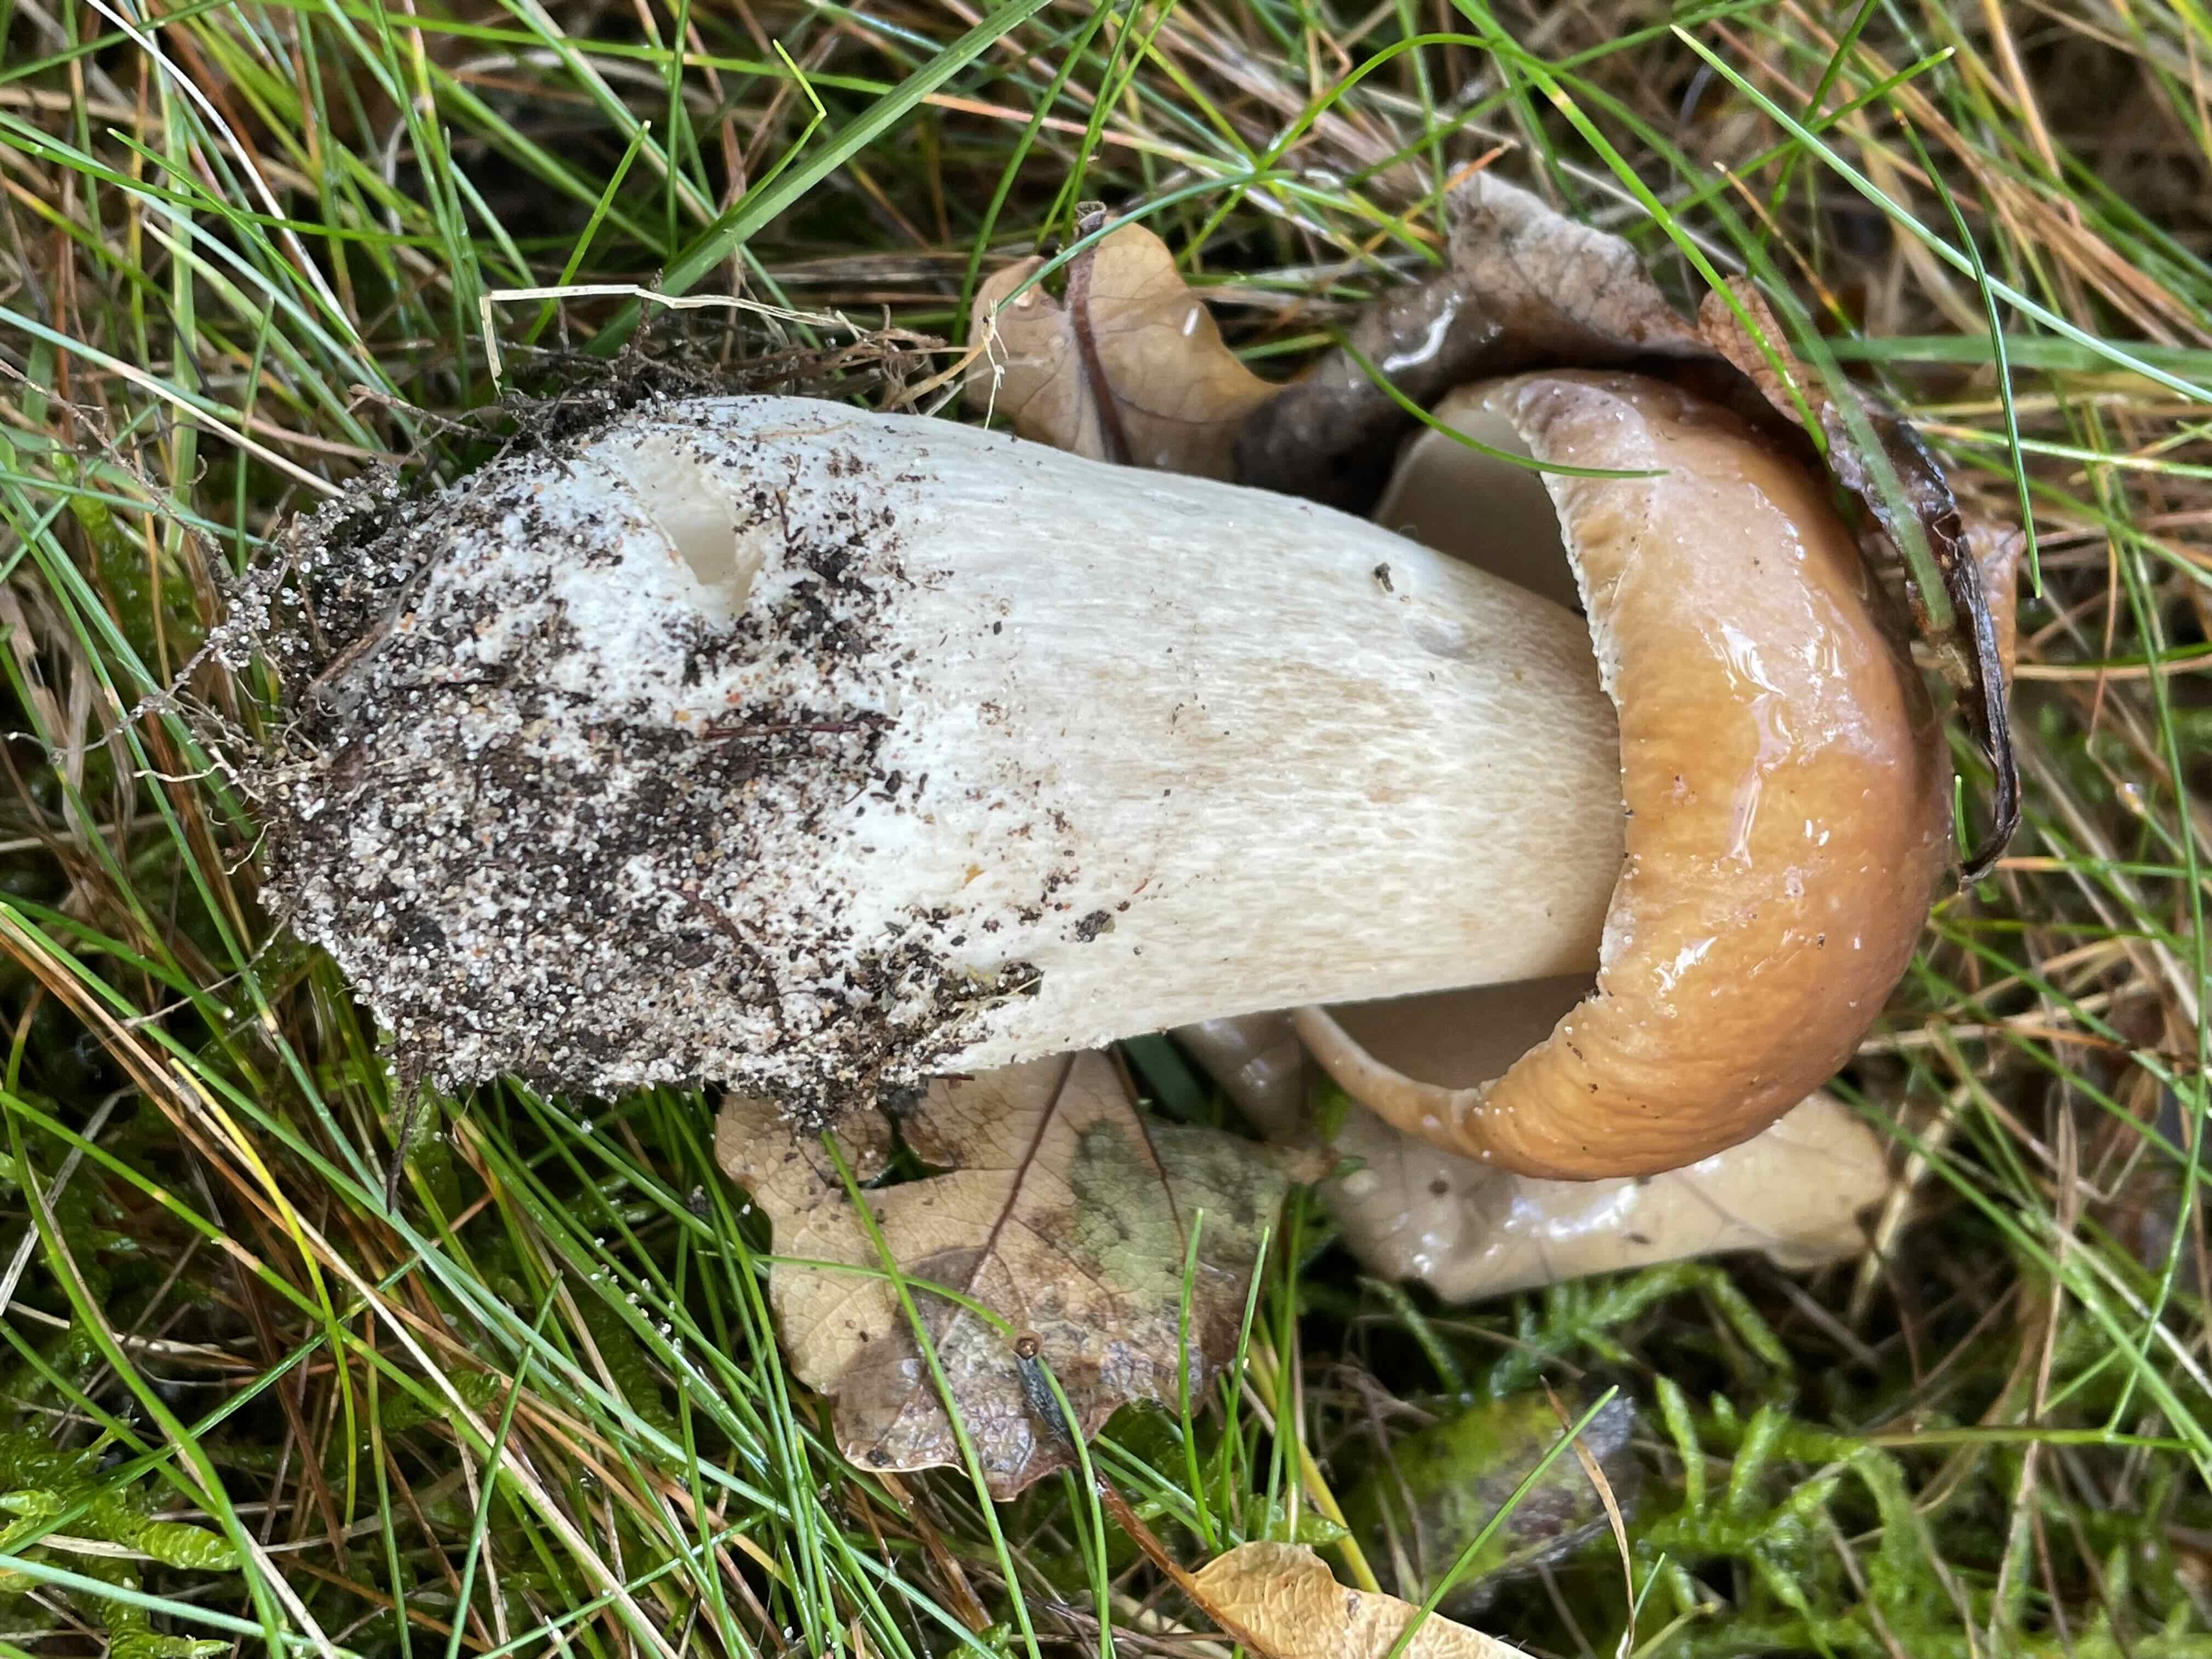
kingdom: Fungi
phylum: Basidiomycota
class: Agaricomycetes
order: Boletales
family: Boletaceae
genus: Boletus
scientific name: Boletus edulis
